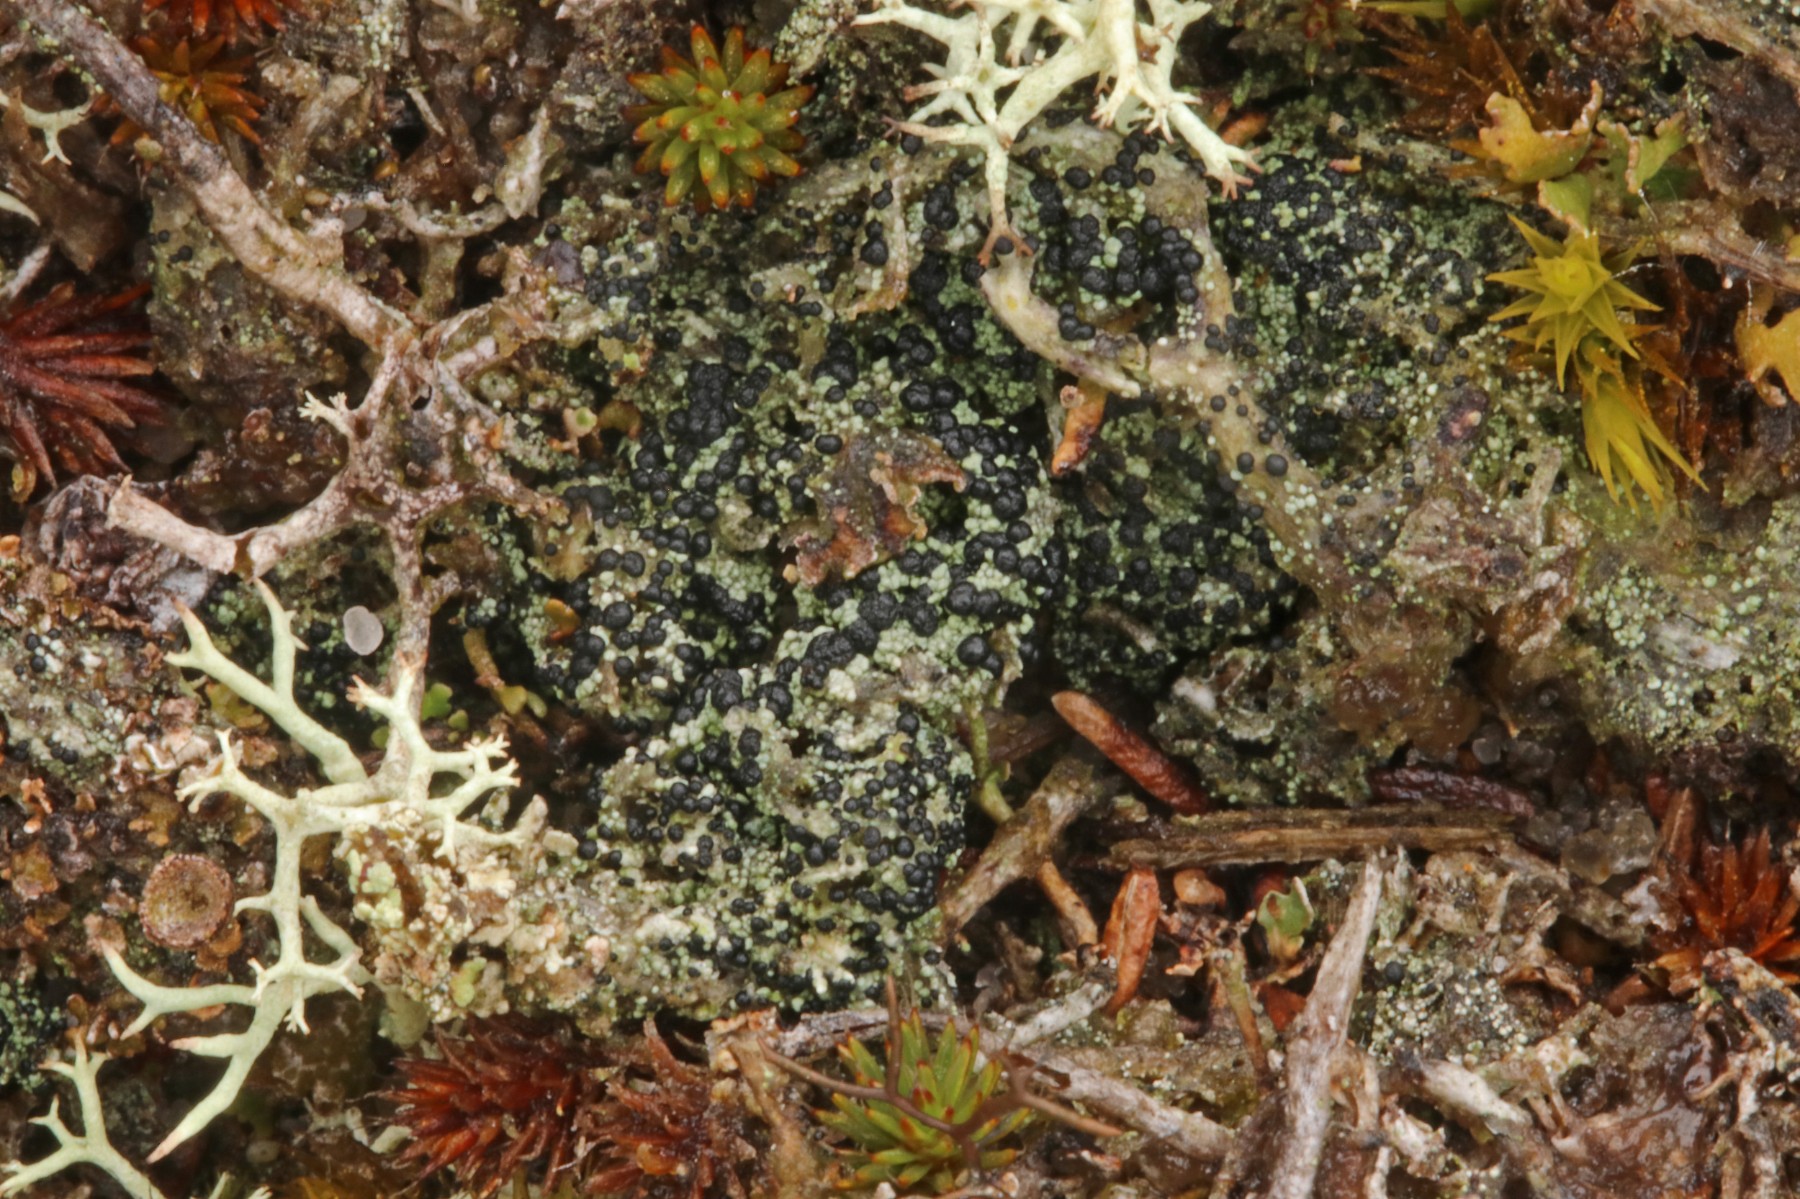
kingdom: Fungi
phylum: Ascomycota
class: Lecanoromycetes
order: Lecanorales
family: Byssolomataceae
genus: Micarea
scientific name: Micarea lignaria
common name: tørve-knaplav
